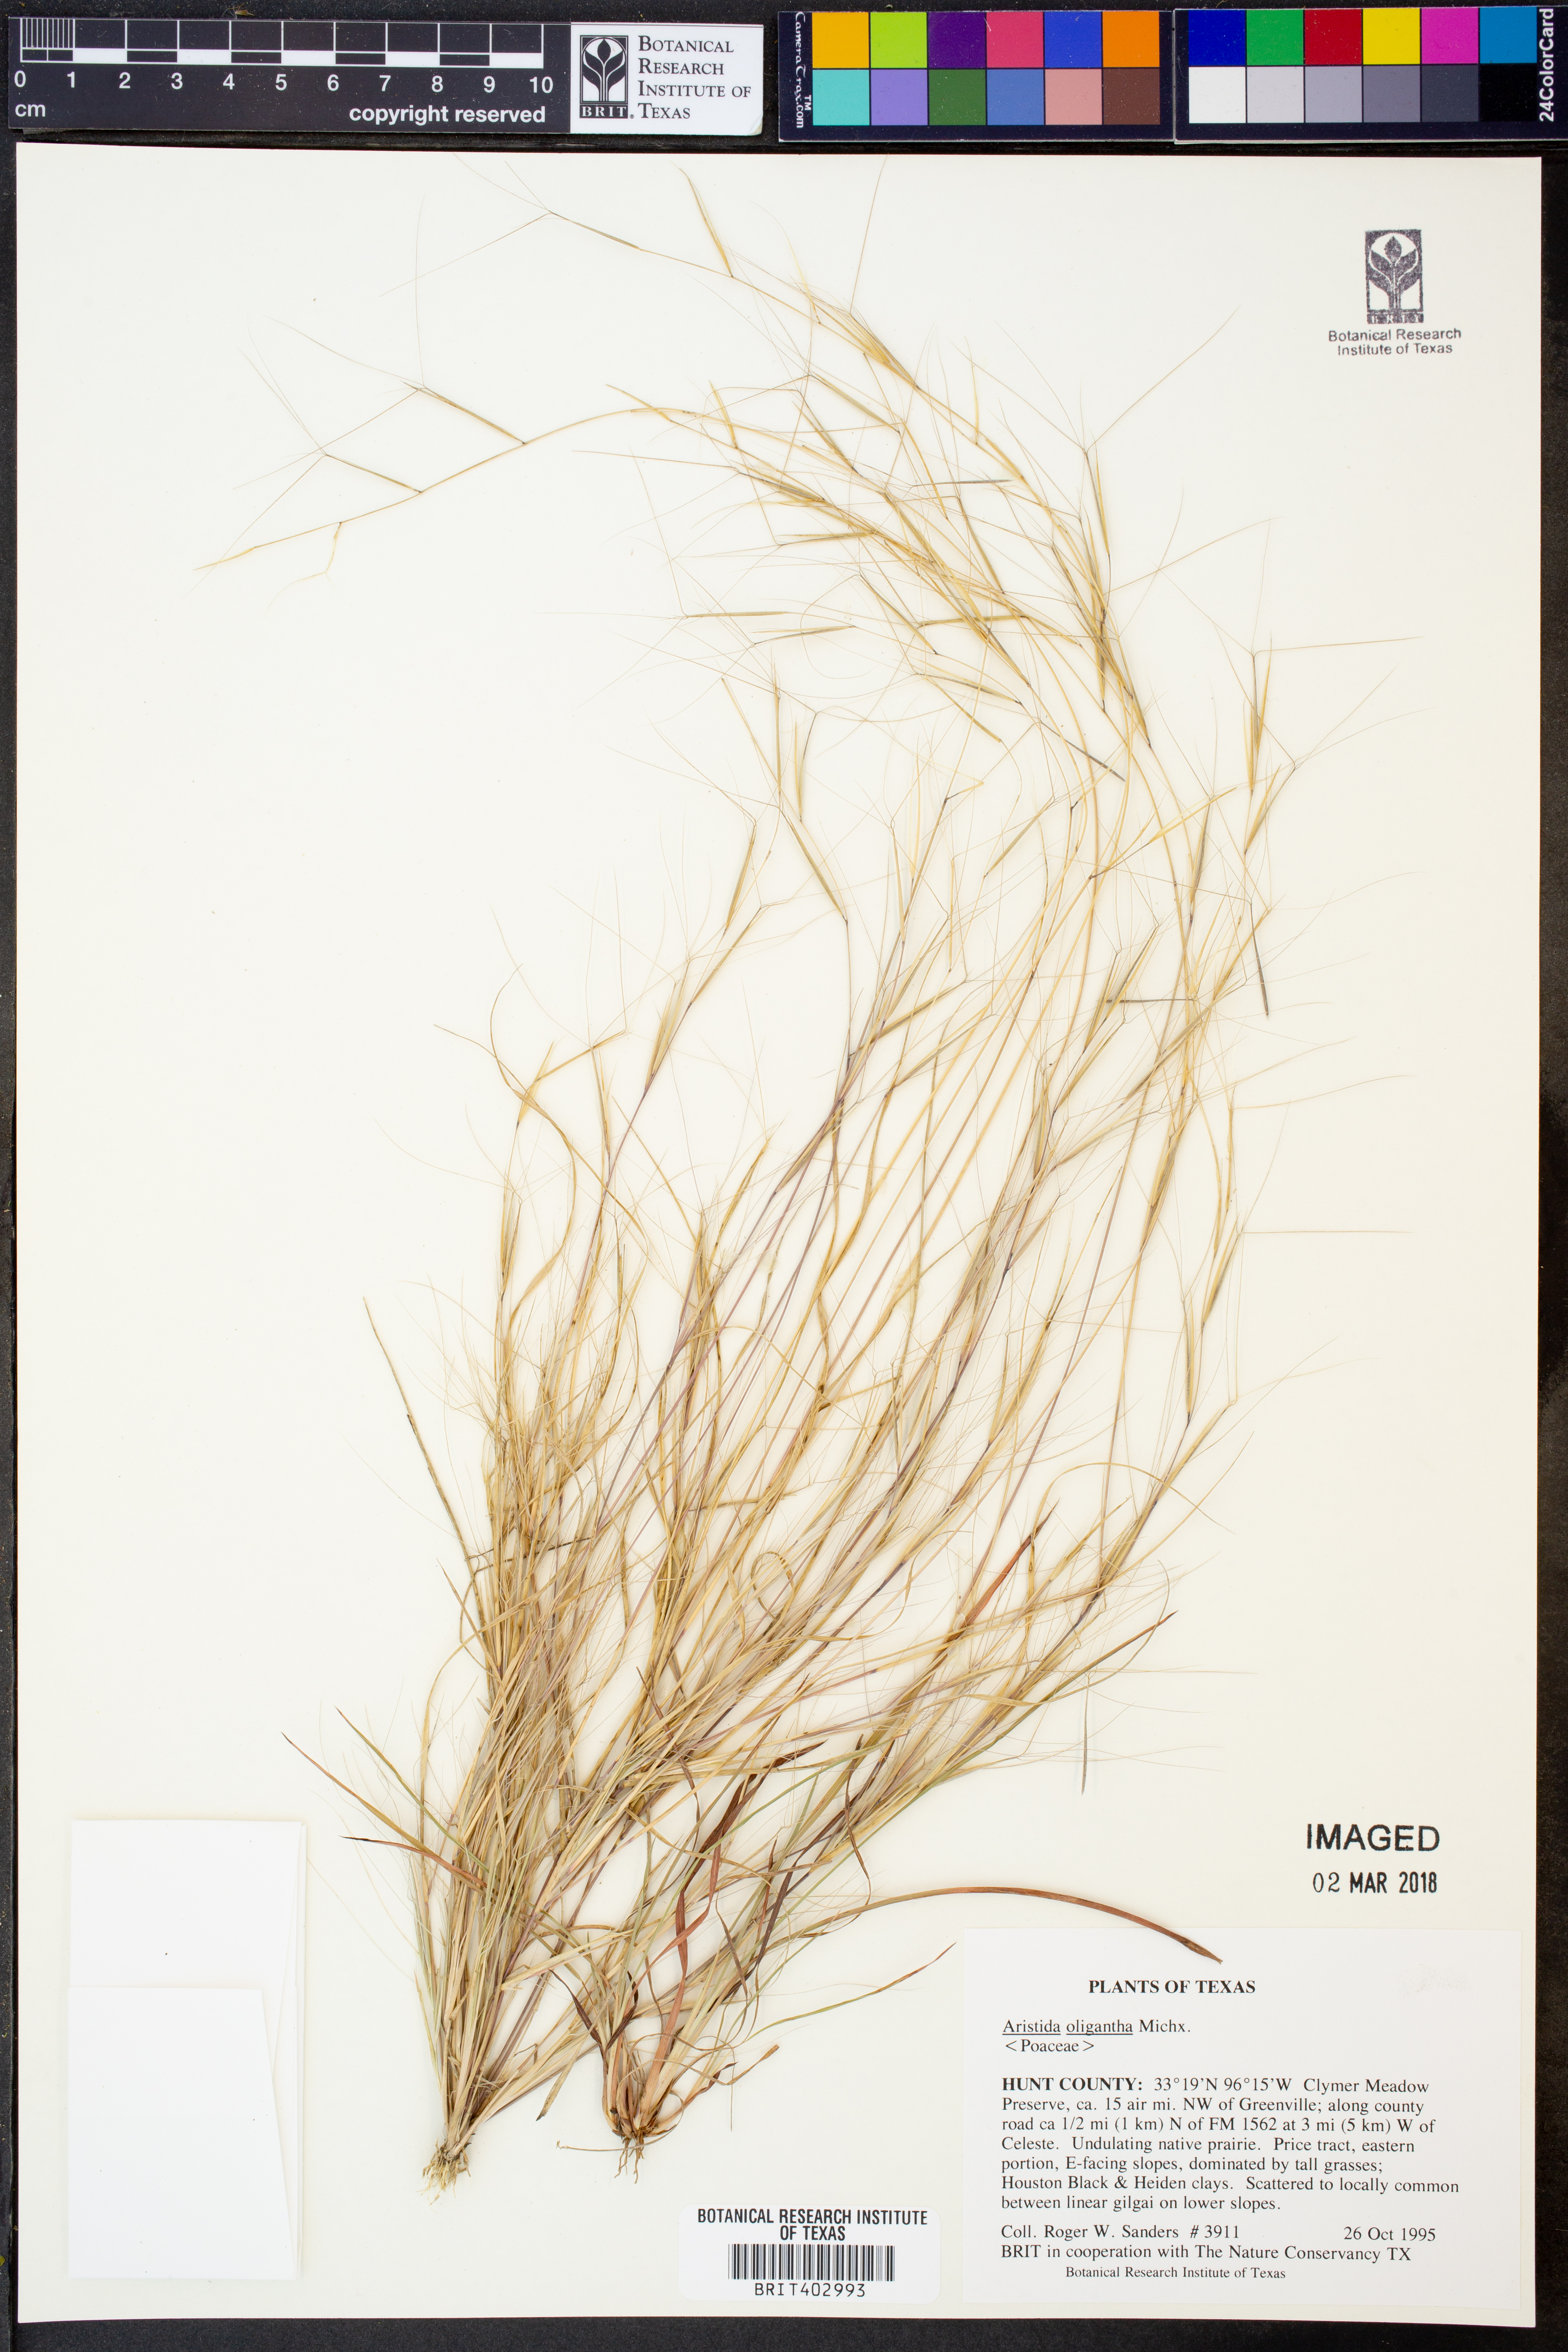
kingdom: Plantae
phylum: Tracheophyta
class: Liliopsida
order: Poales
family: Poaceae
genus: Aristida
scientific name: Aristida oligantha
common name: Few-flowered aristida
